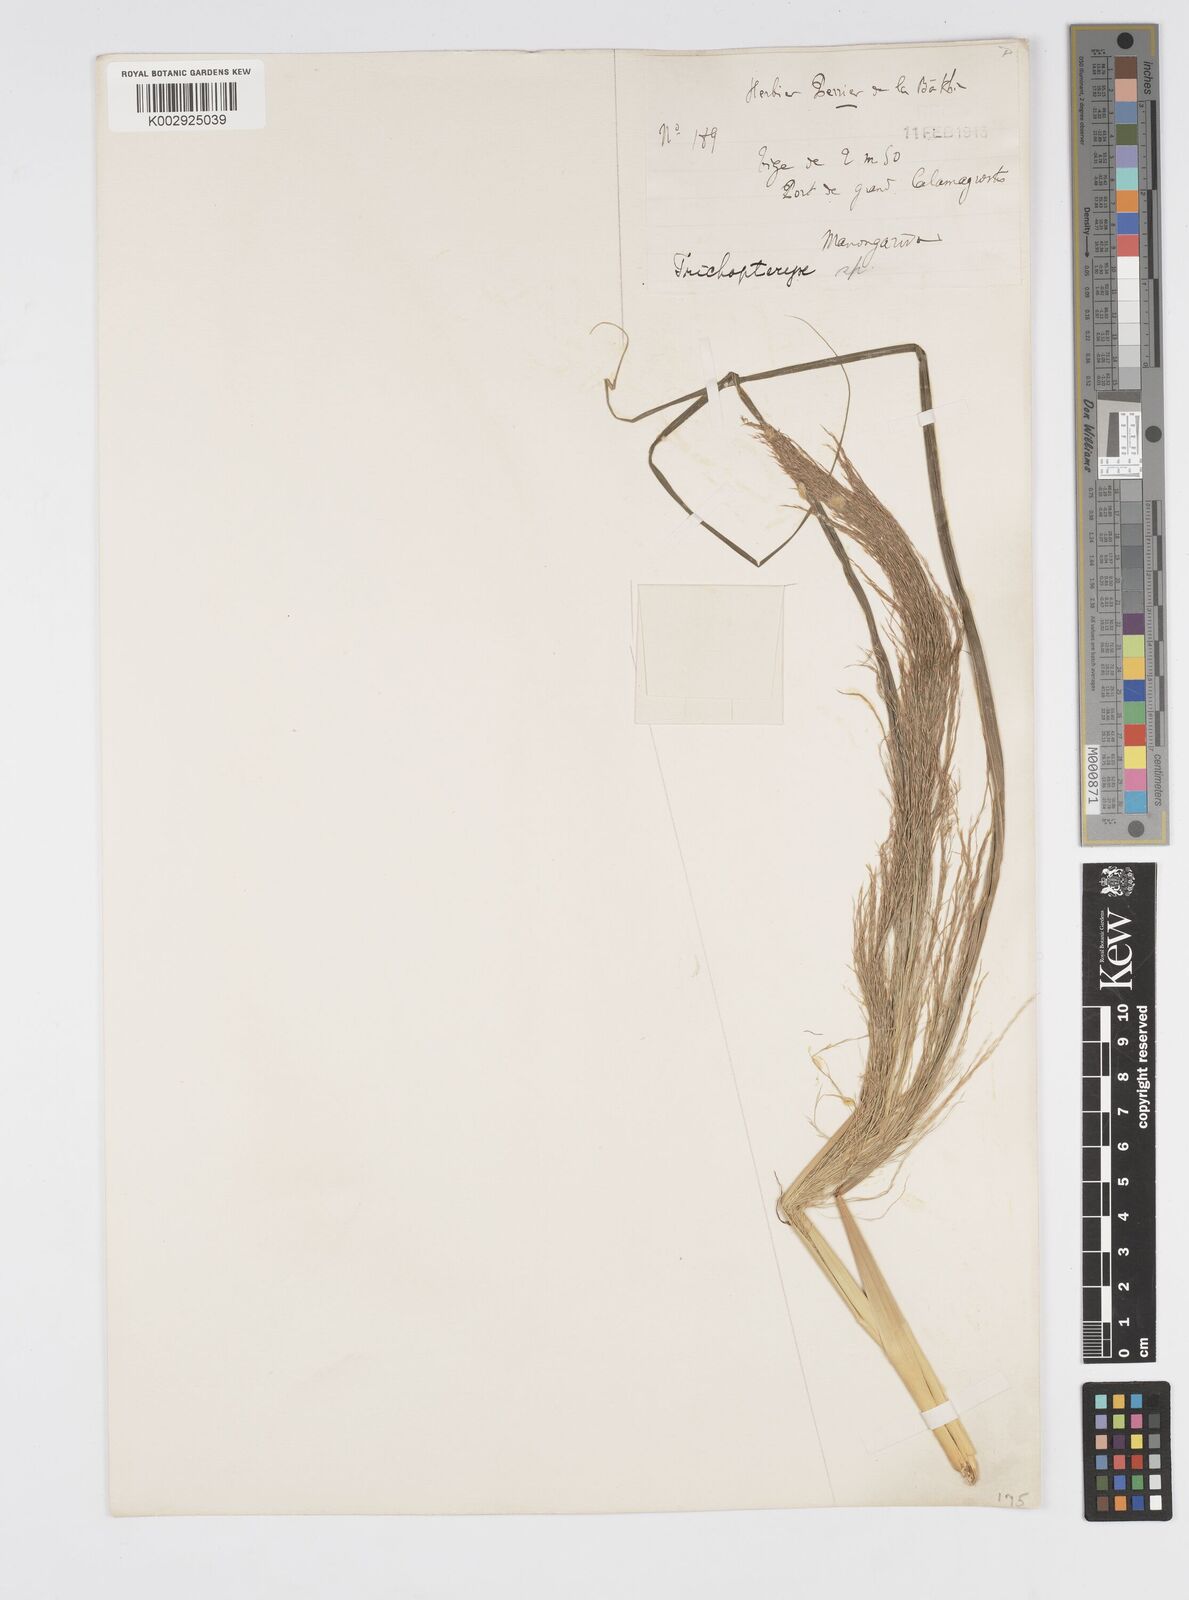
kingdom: Plantae
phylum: Tracheophyta
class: Liliopsida
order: Poales
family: Poaceae
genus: Loudetia
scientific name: Loudetia
